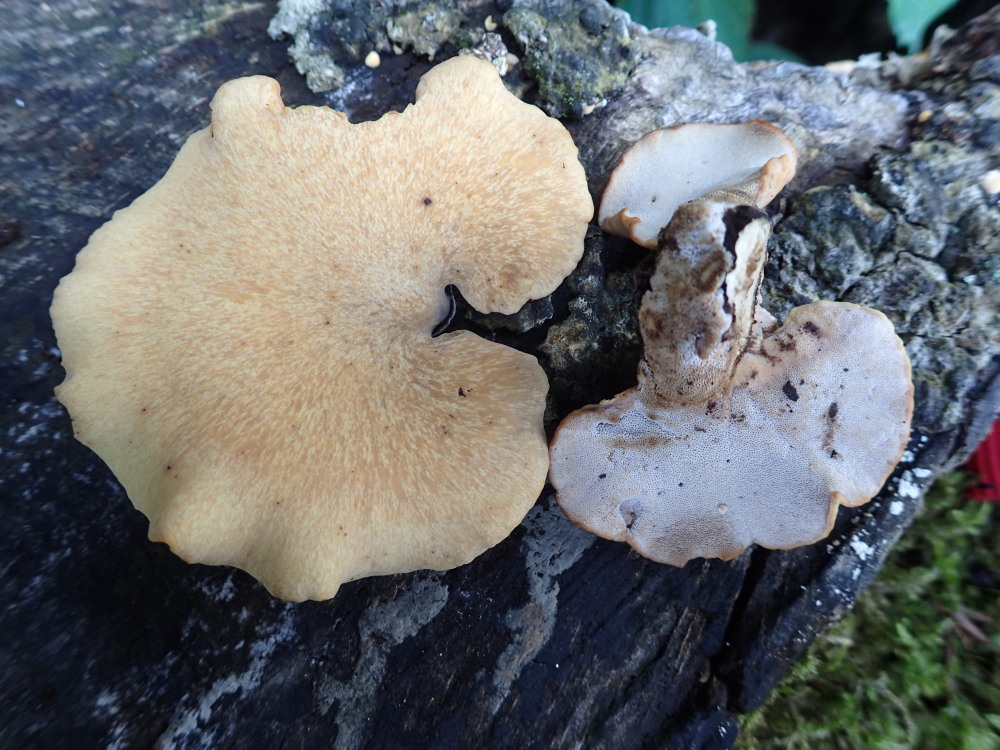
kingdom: Fungi
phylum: Basidiomycota
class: Agaricomycetes
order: Polyporales
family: Polyporaceae
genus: Cerioporus
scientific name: Cerioporus varius
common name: foranderlig stilkporesvamp
